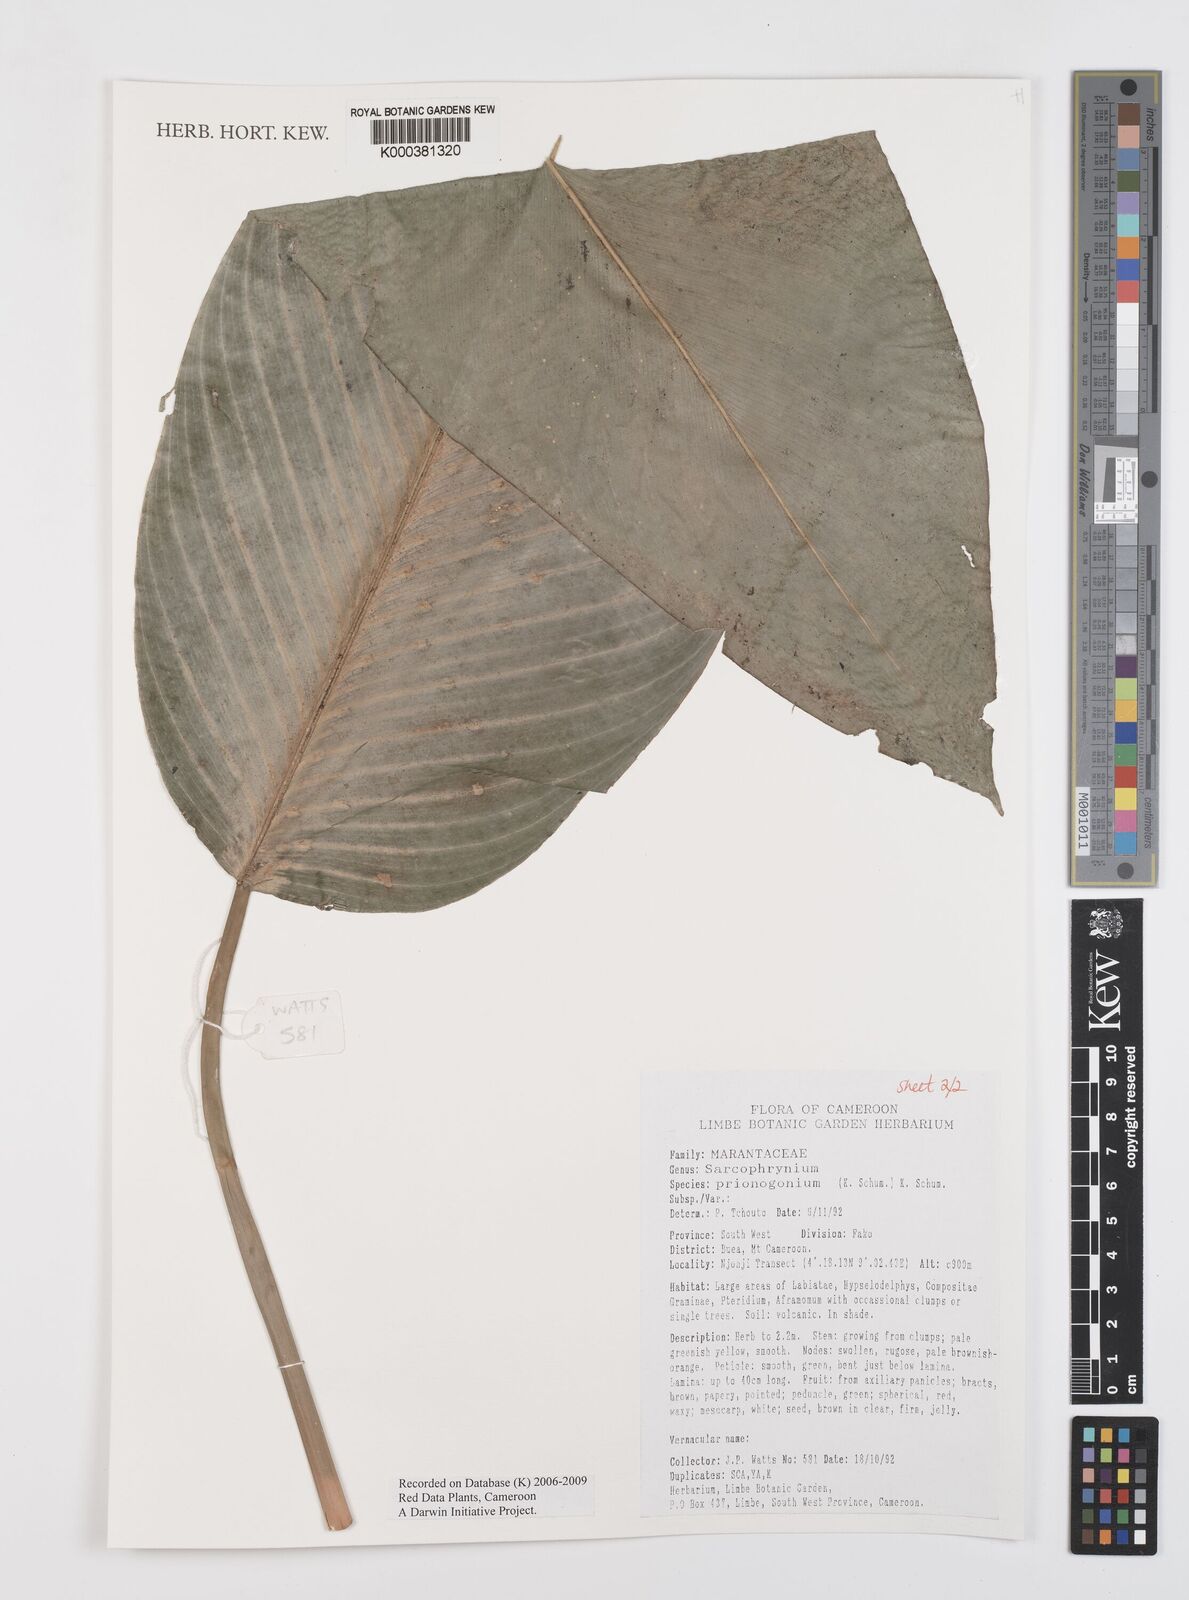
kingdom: Plantae
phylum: Tracheophyta
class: Liliopsida
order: Zingiberales
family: Marantaceae
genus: Sarcophrynium
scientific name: Sarcophrynium prionogonium
